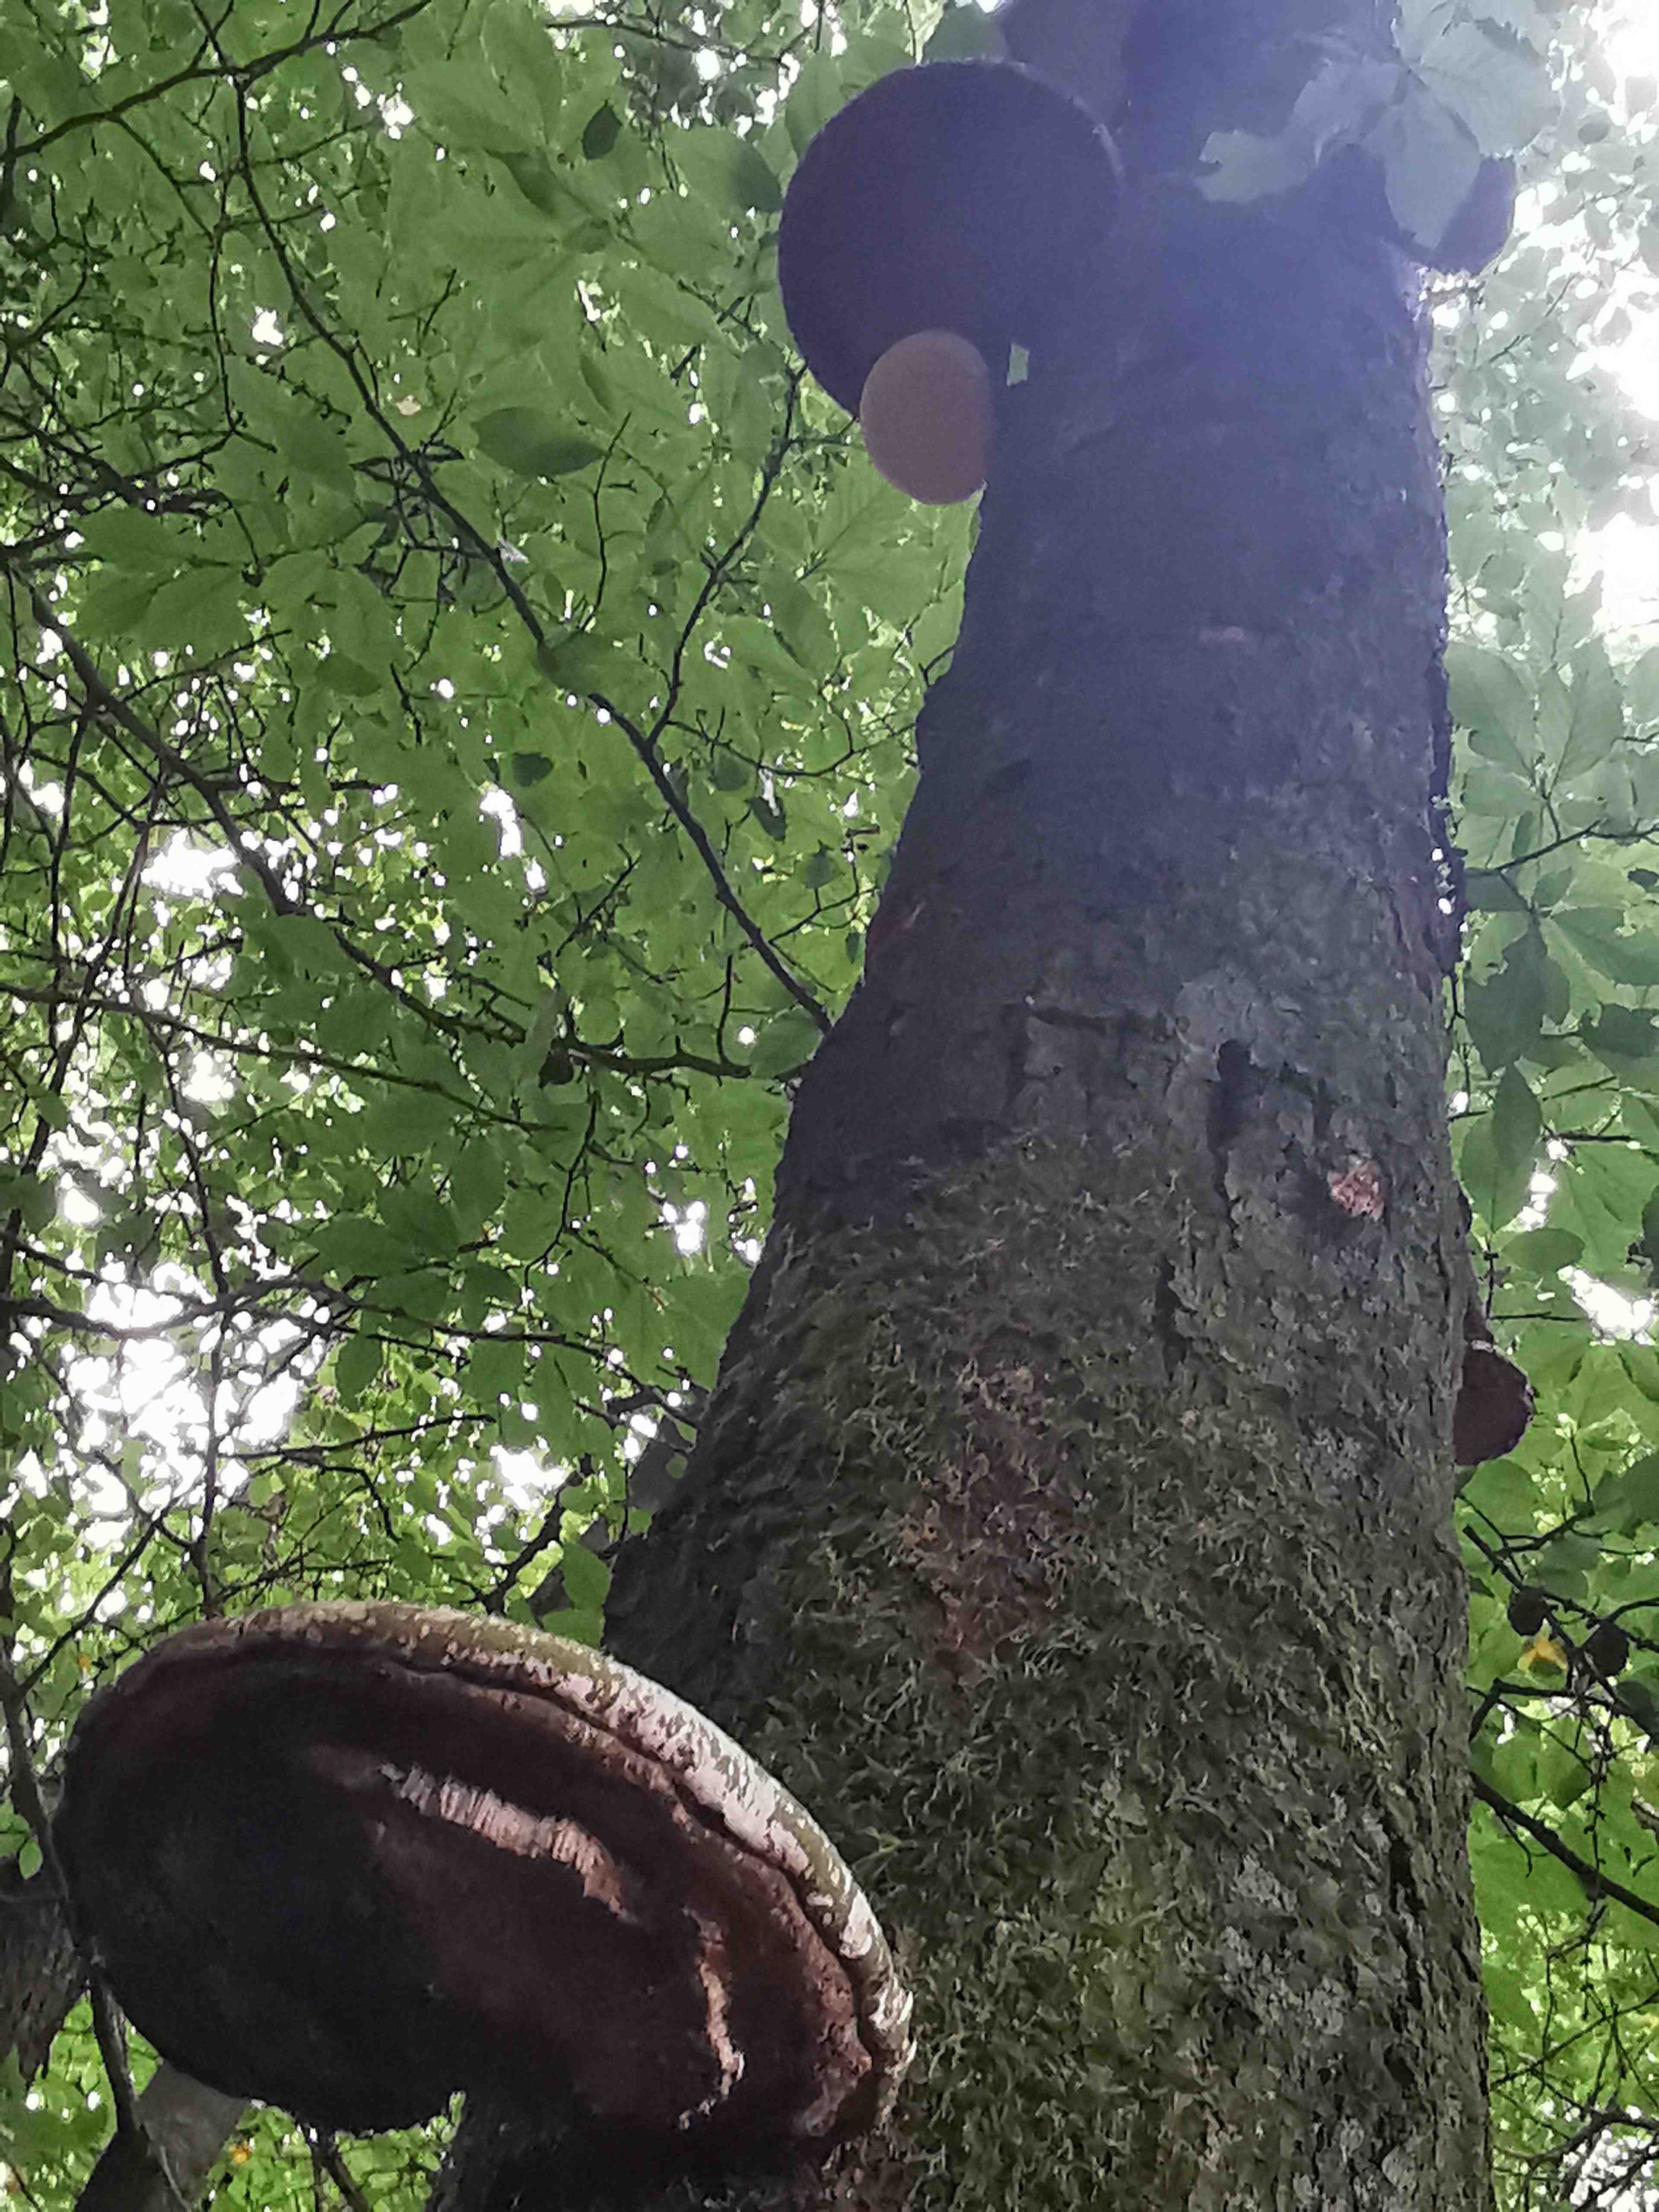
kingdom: Fungi
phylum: Basidiomycota
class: Agaricomycetes
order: Polyporales
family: Fomitopsidaceae
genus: Fomitopsis
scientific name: Fomitopsis betulina
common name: birkeporesvamp
